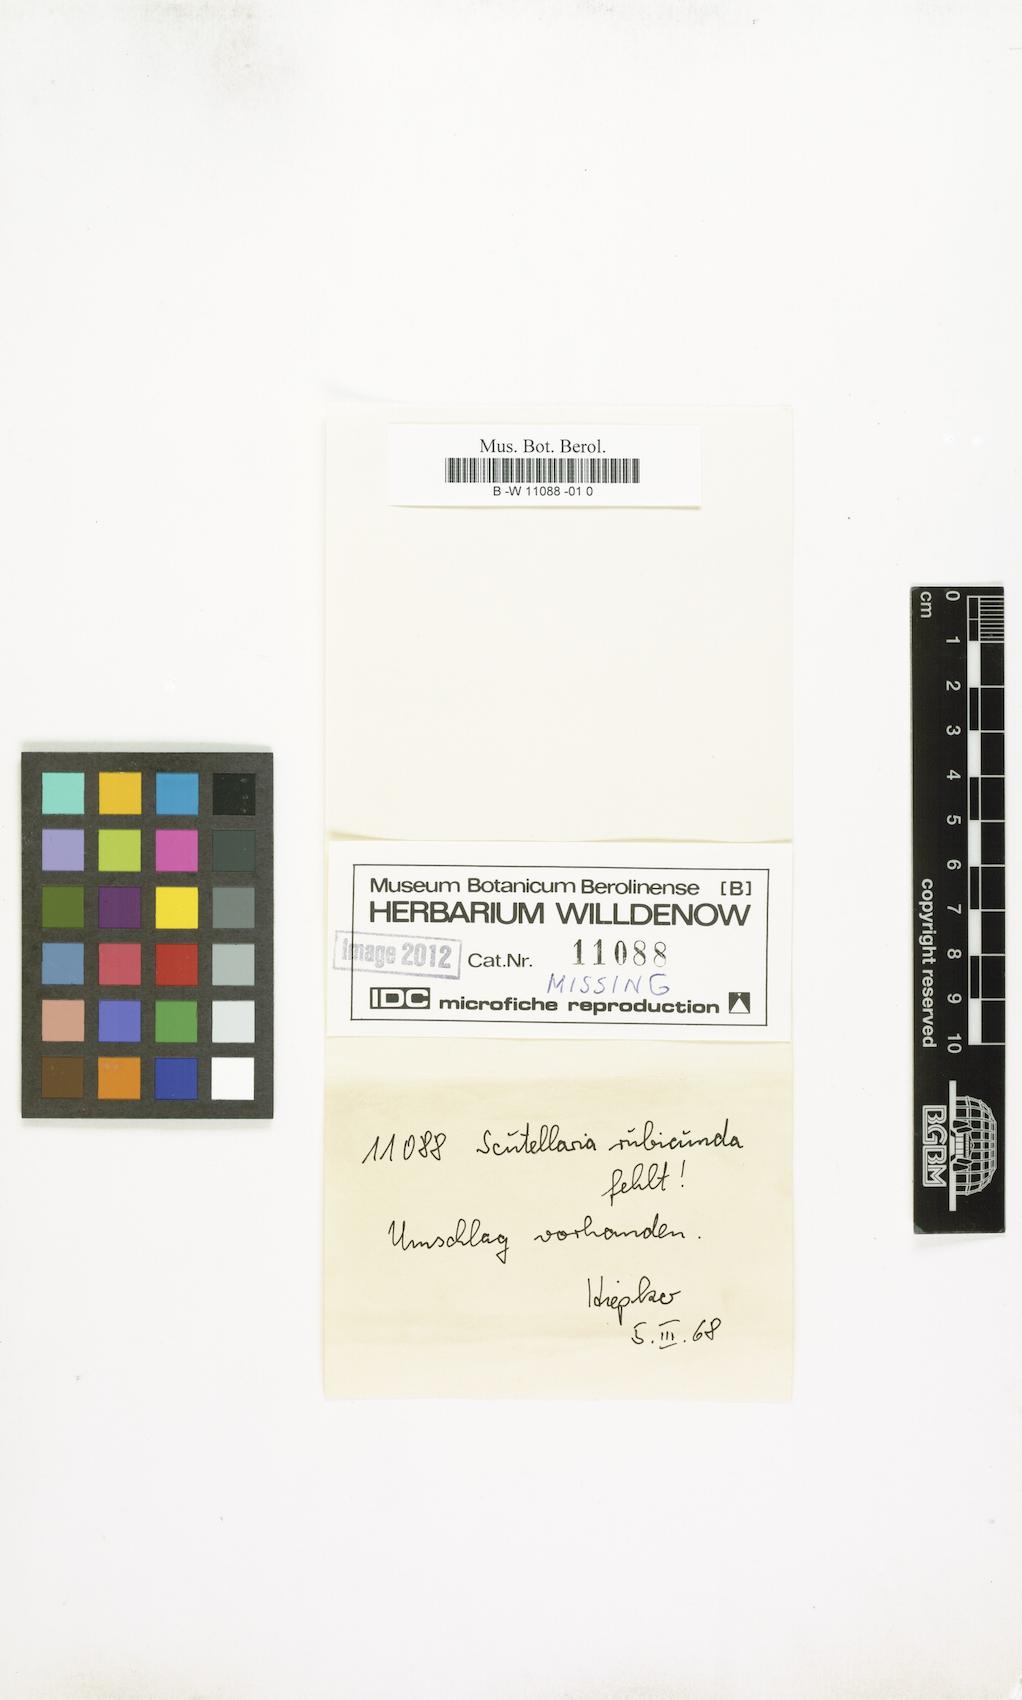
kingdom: Plantae
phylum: Tracheophyta
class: Magnoliopsida
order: Lamiales
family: Lamiaceae
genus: Scutellaria
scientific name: Scutellaria rubicunda
